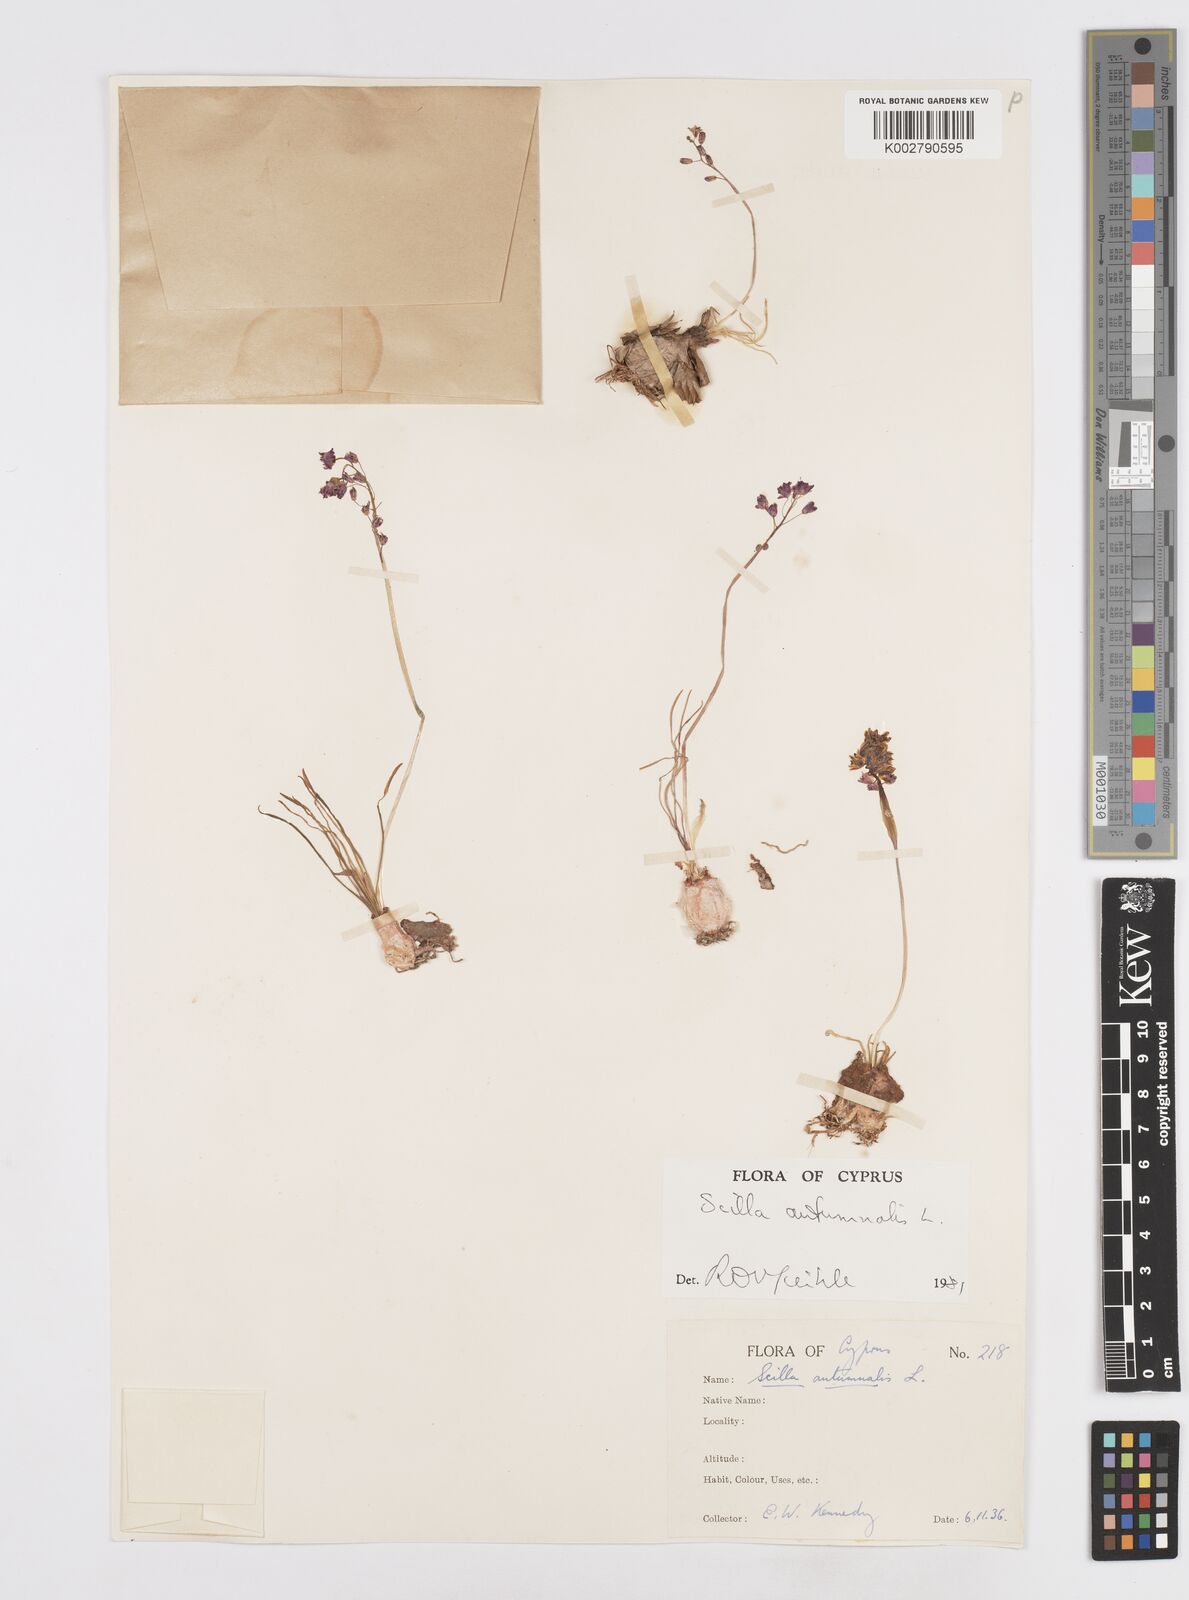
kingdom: Plantae
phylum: Tracheophyta
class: Liliopsida
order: Asparagales
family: Asparagaceae
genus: Prospero
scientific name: Prospero autumnale
